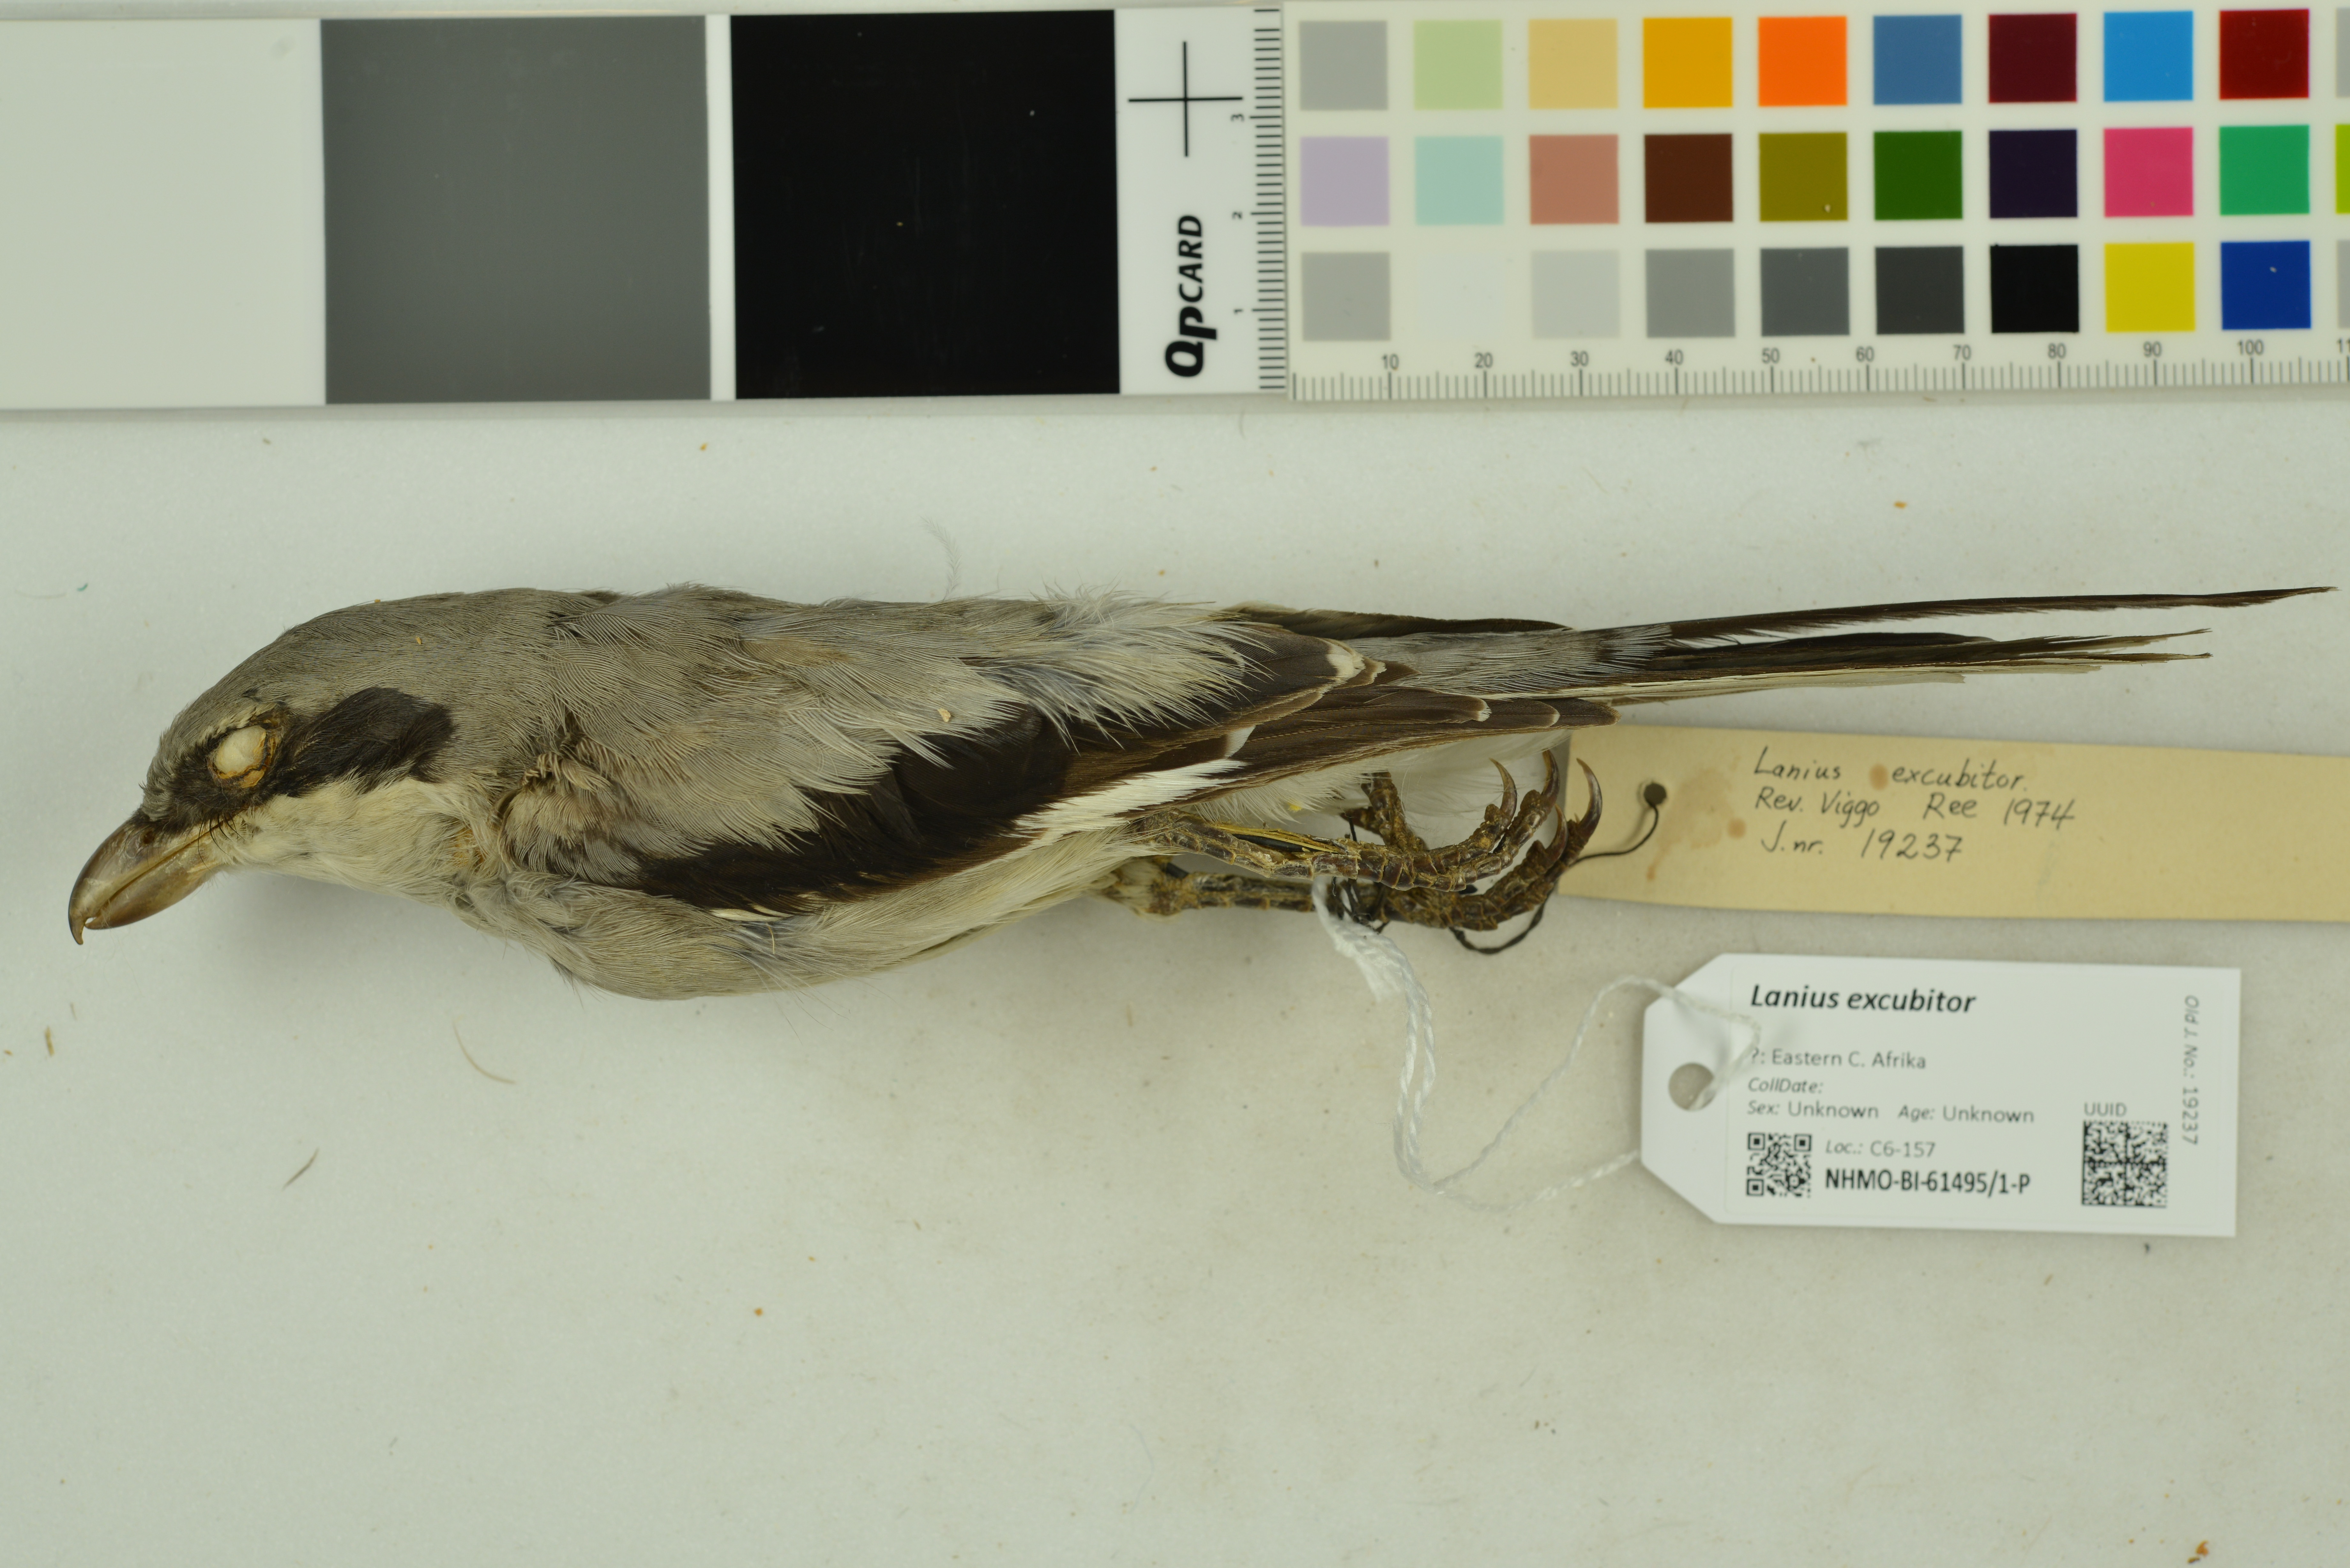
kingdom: Animalia
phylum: Chordata
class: Aves
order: Passeriformes
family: Laniidae
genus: Lanius
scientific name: Lanius excubitor
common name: Great grey shrike
